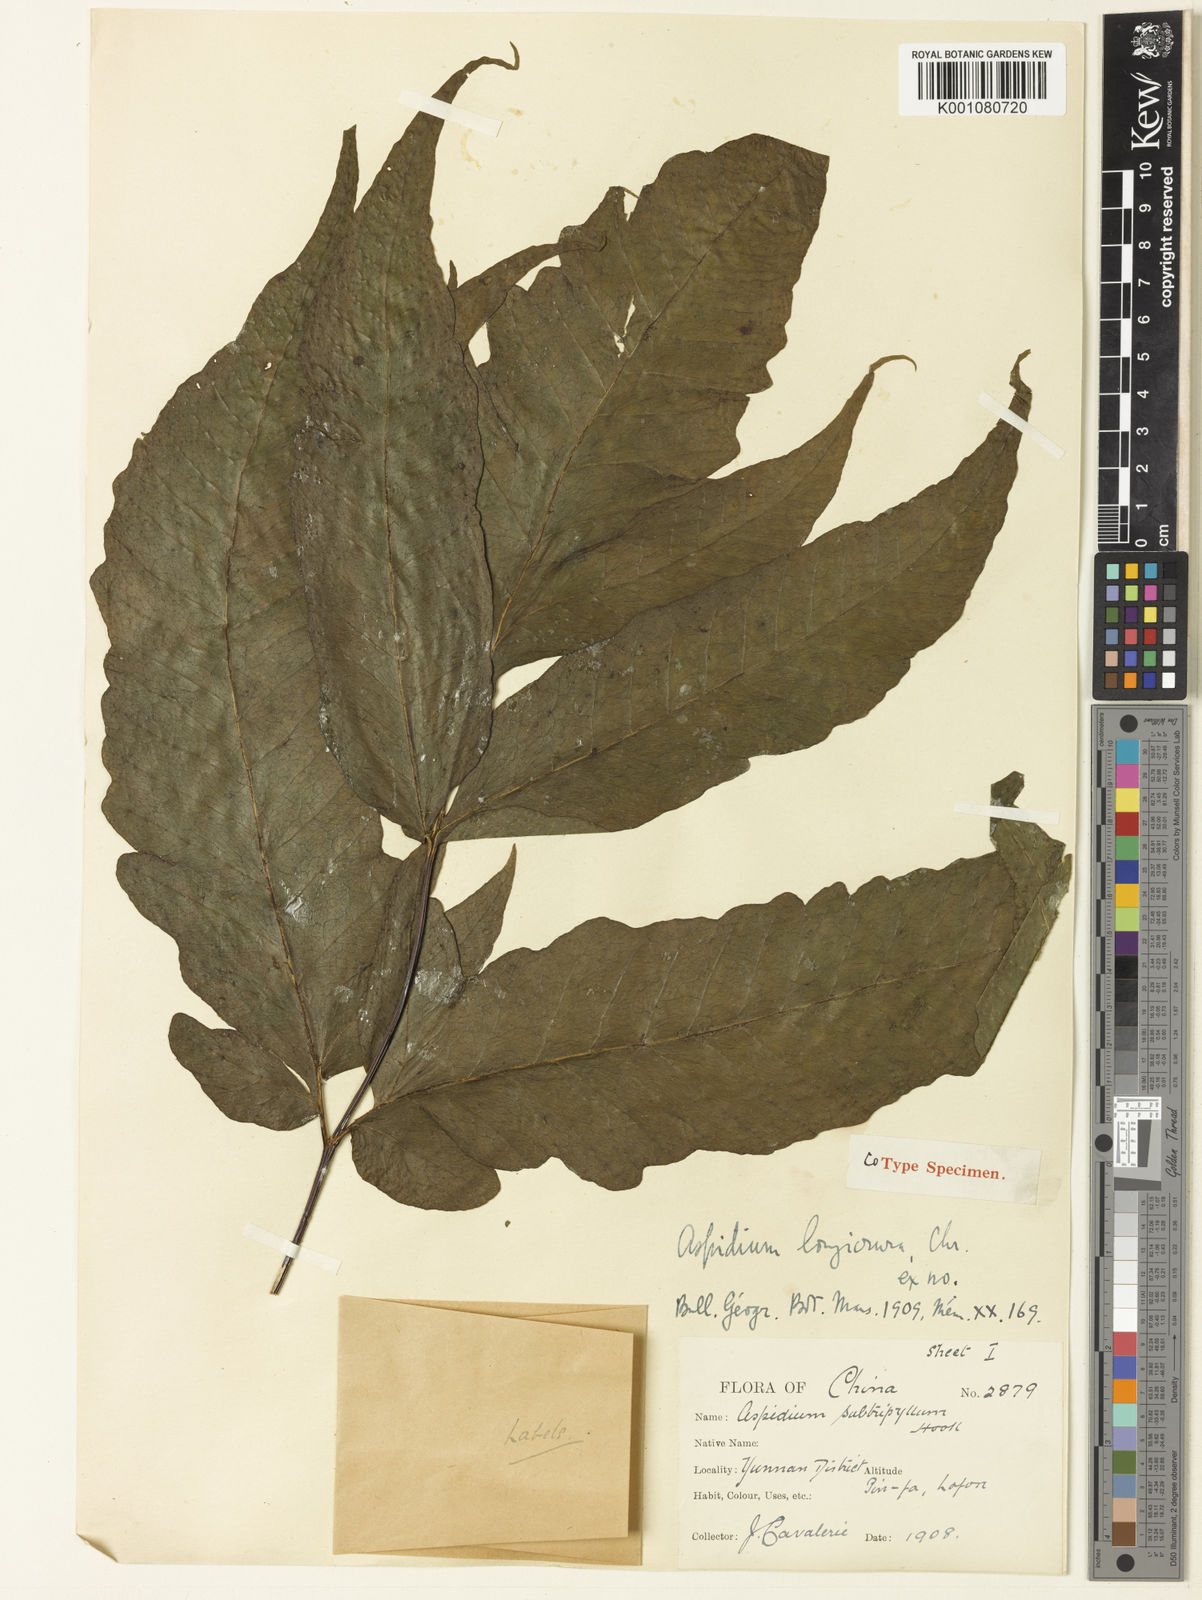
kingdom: Plantae
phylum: Tracheophyta
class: Polypodiopsida
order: Polypodiales
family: Tectariaceae
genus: Tectaria
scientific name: Tectaria simonsii
